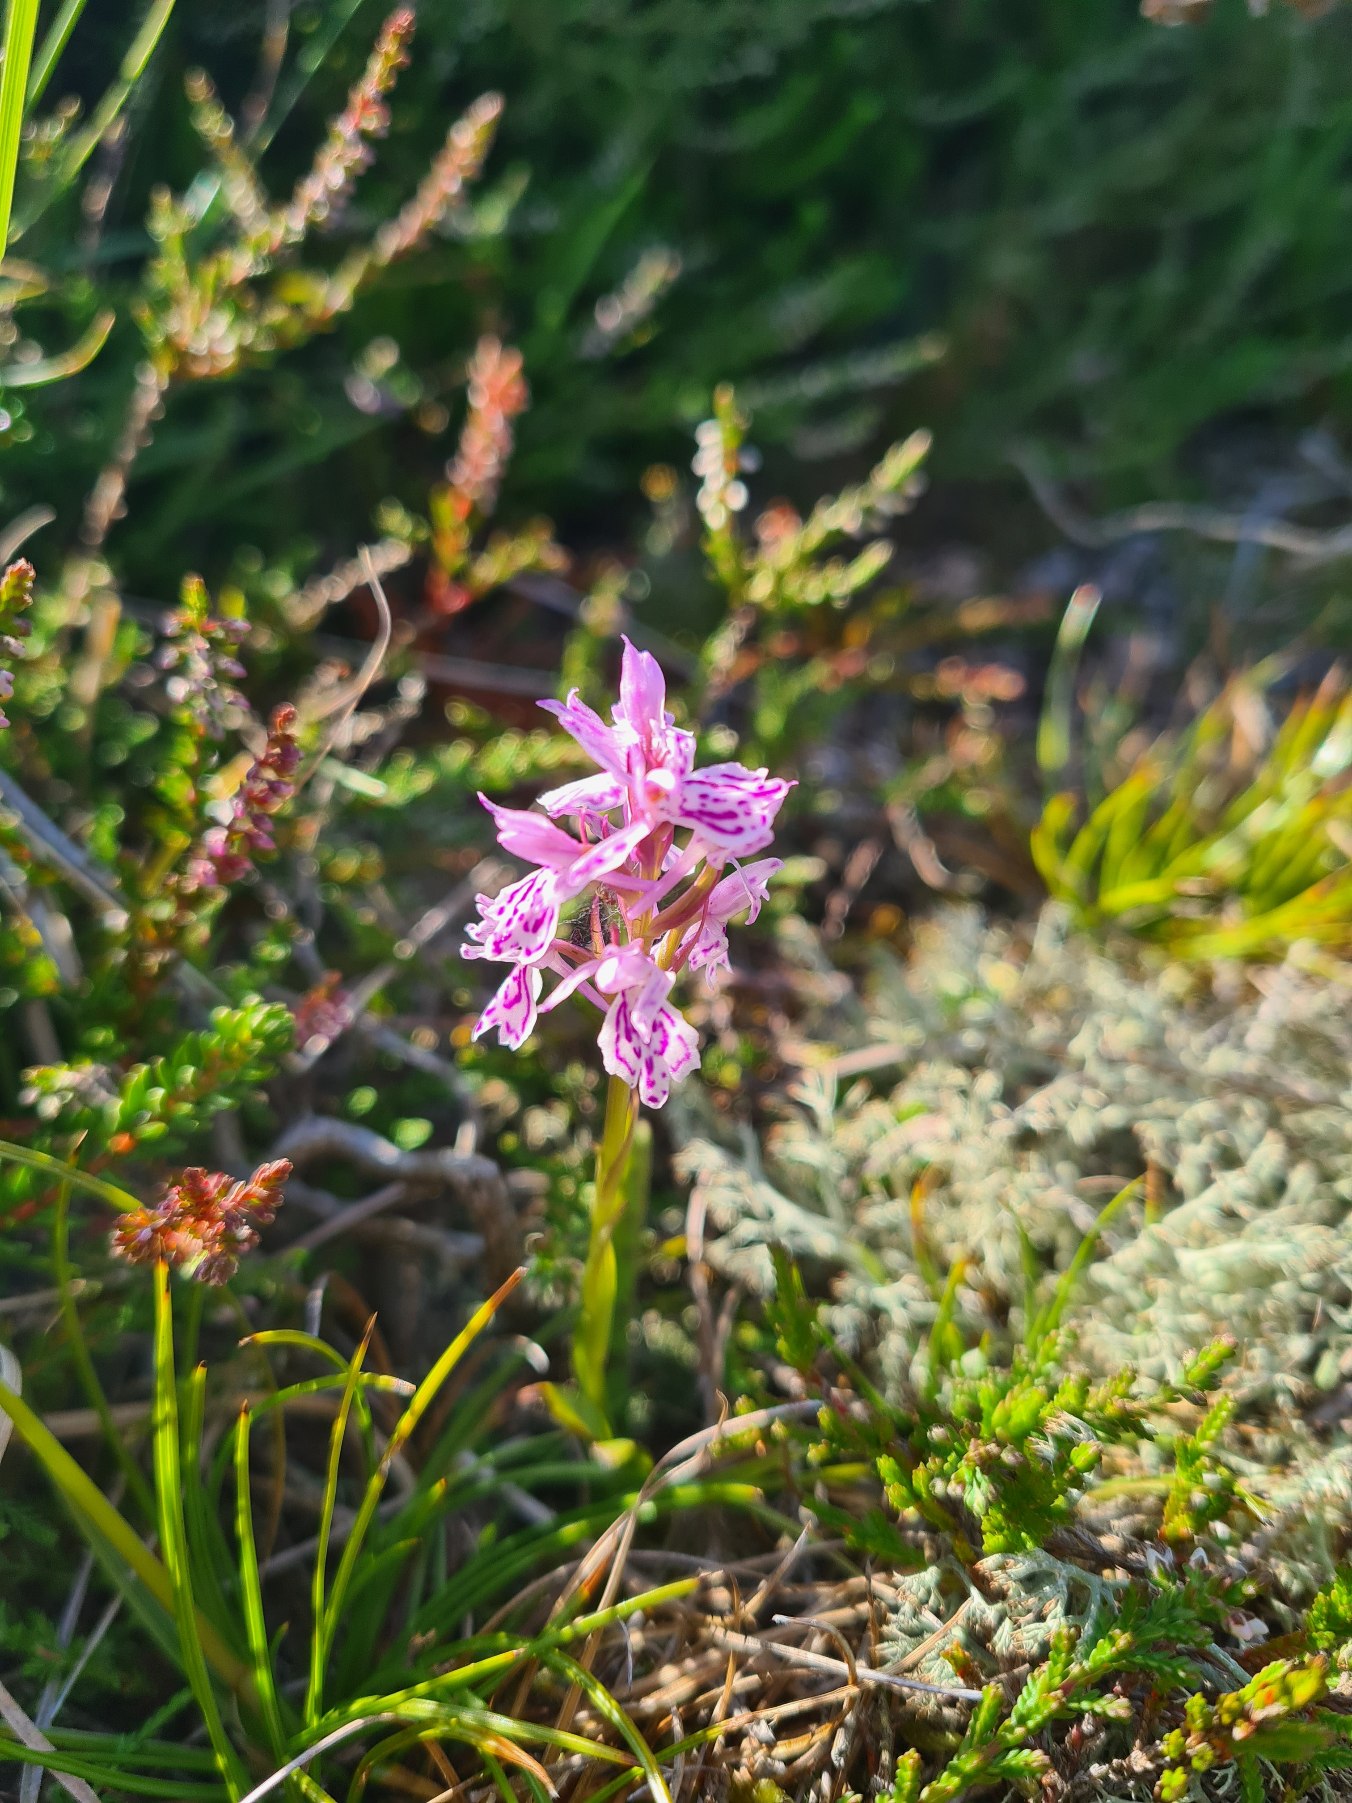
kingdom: Plantae
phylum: Tracheophyta
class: Liliopsida
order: Asparagales
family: Orchidaceae
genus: Dactylorhiza
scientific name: Dactylorhiza maculata
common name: Plettet gøgeurt (underart)
